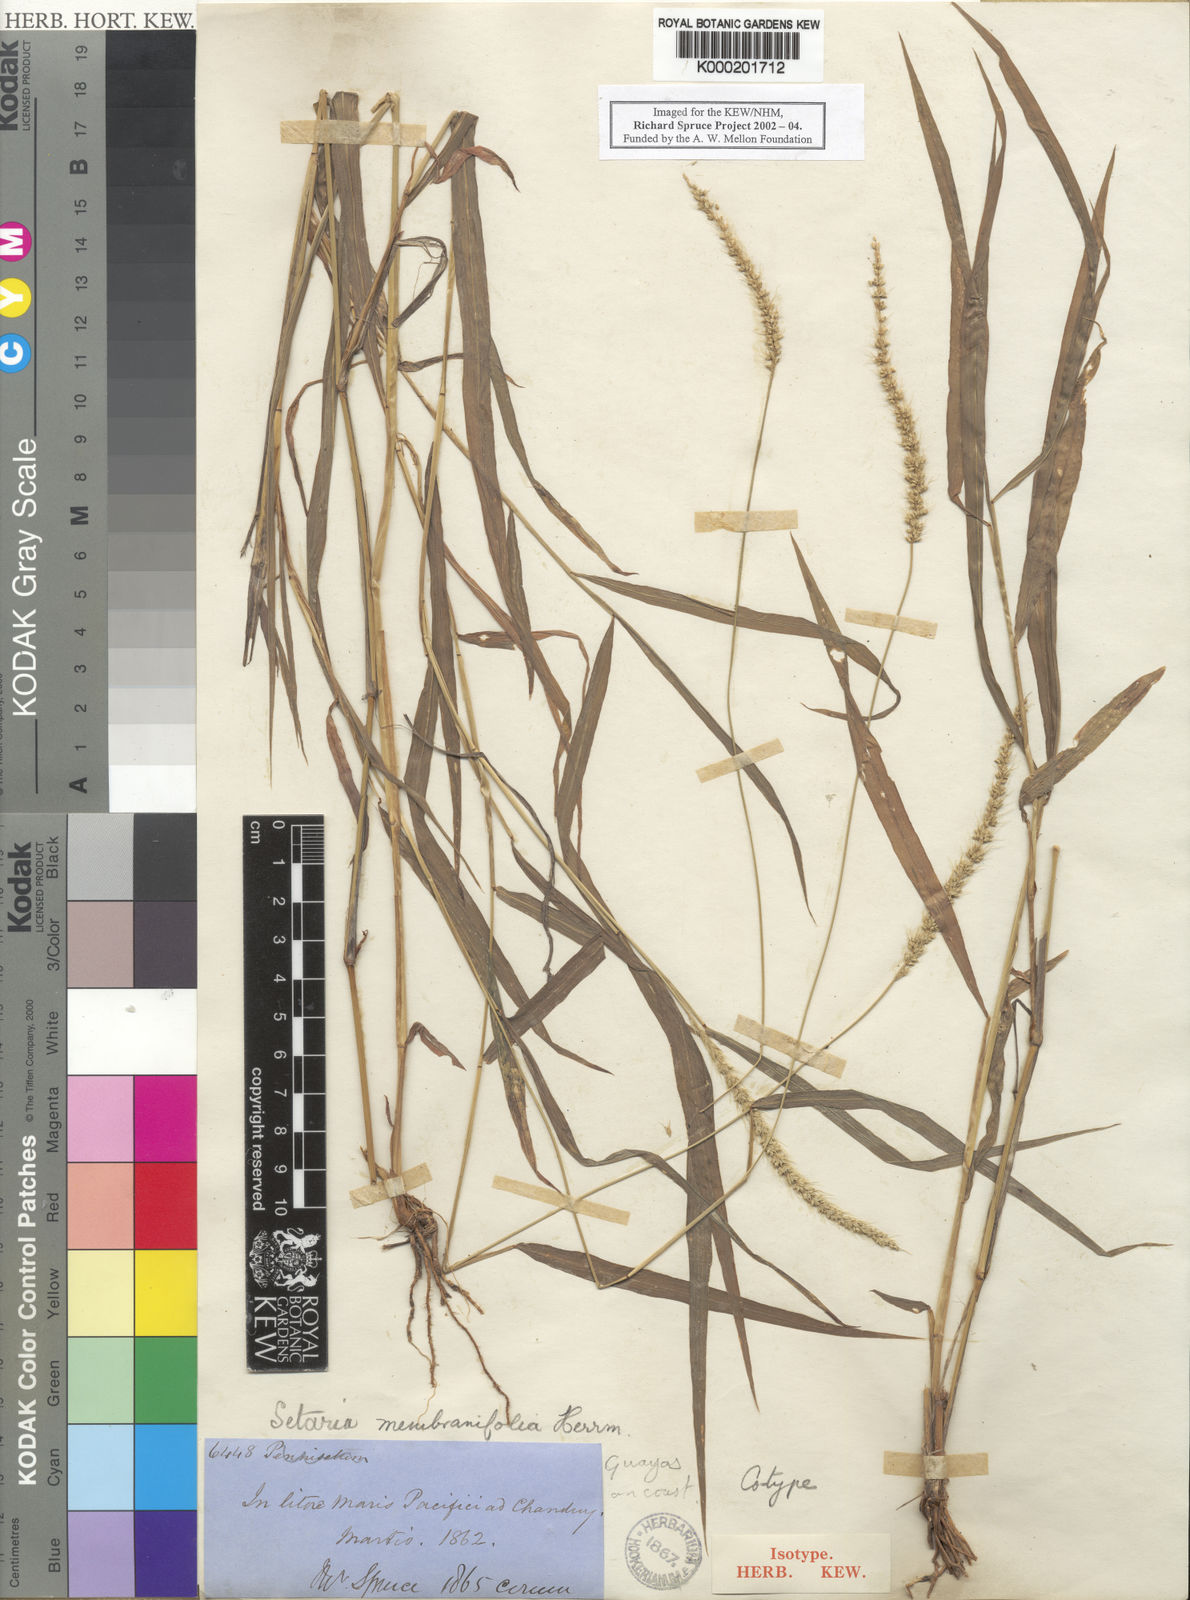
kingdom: Plantae
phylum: Tracheophyta
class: Liliopsida
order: Poales
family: Poaceae
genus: Setaria
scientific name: Setaria grisebachii
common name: Grisebach's bristle grass
